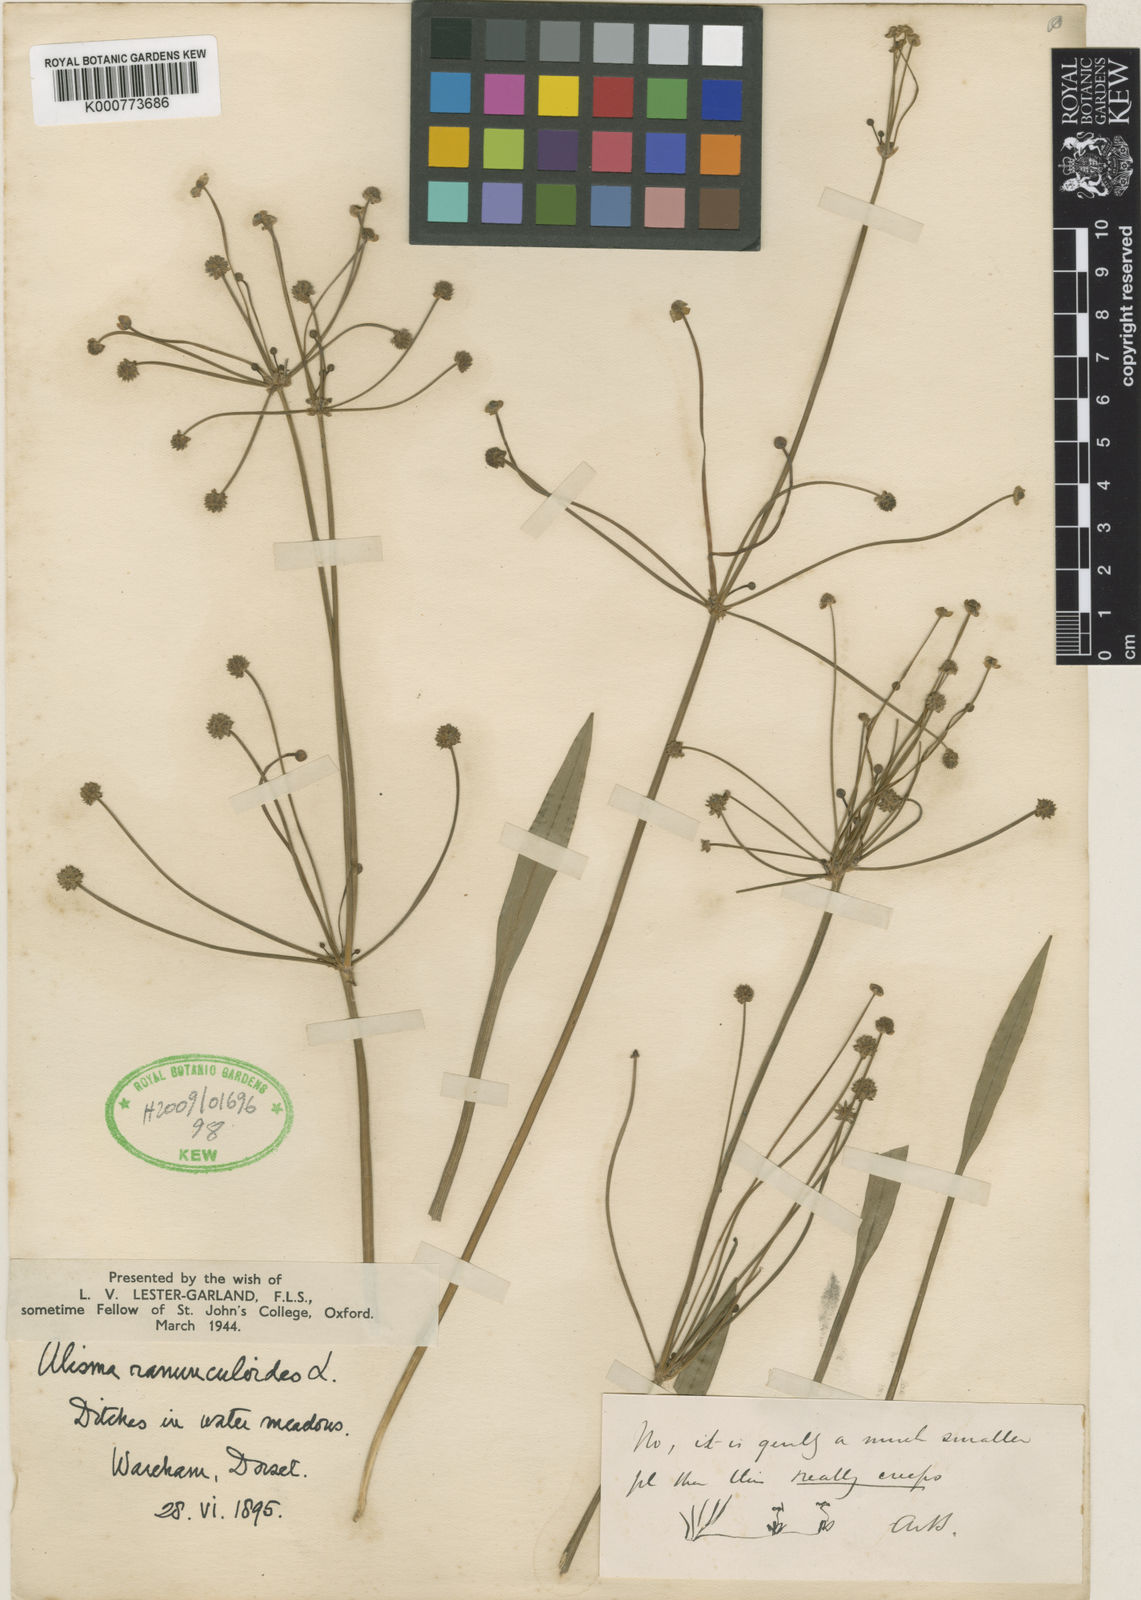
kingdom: Plantae
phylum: Tracheophyta
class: Liliopsida
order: Alismatales
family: Alismataceae
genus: Baldellia
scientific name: Baldellia ranunculoides
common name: Lesser water-plantain
